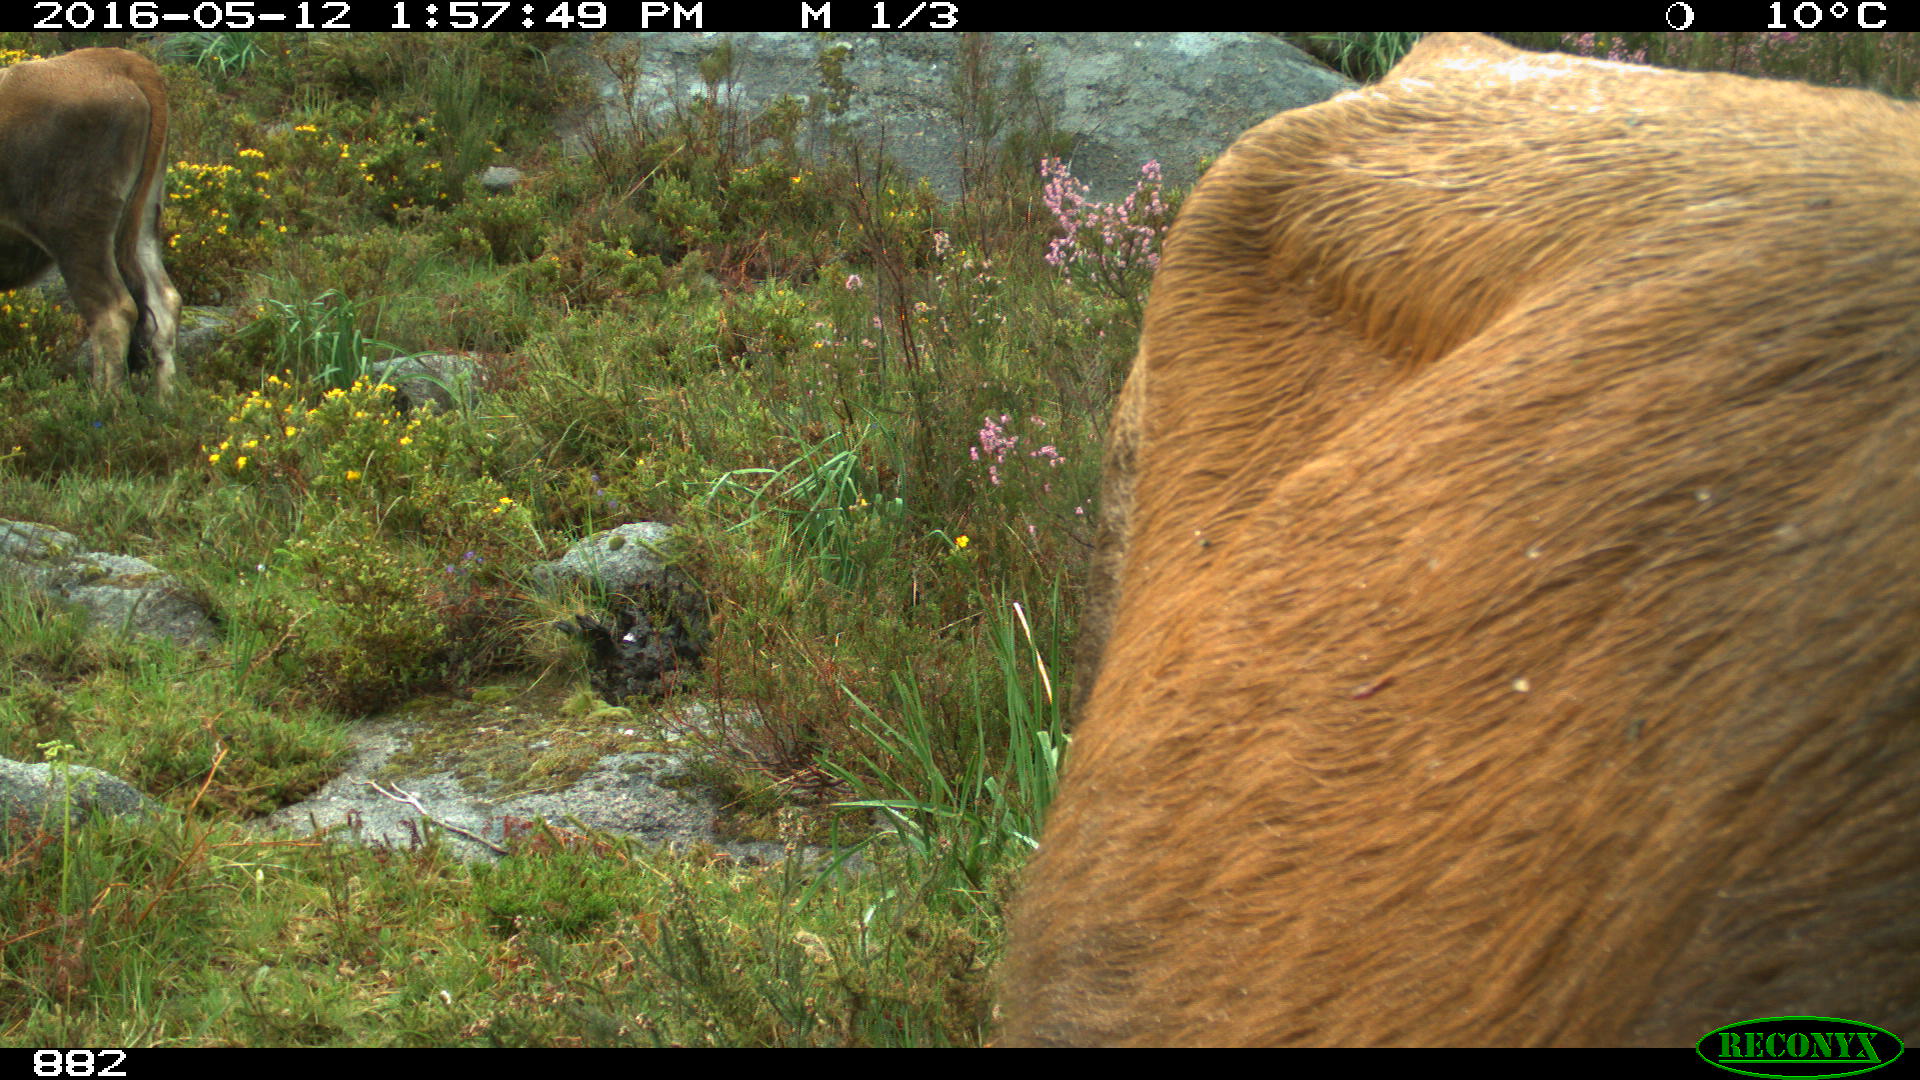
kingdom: Animalia
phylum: Chordata
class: Mammalia
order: Artiodactyla
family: Bovidae
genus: Bos
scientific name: Bos taurus
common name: Domesticated cattle
